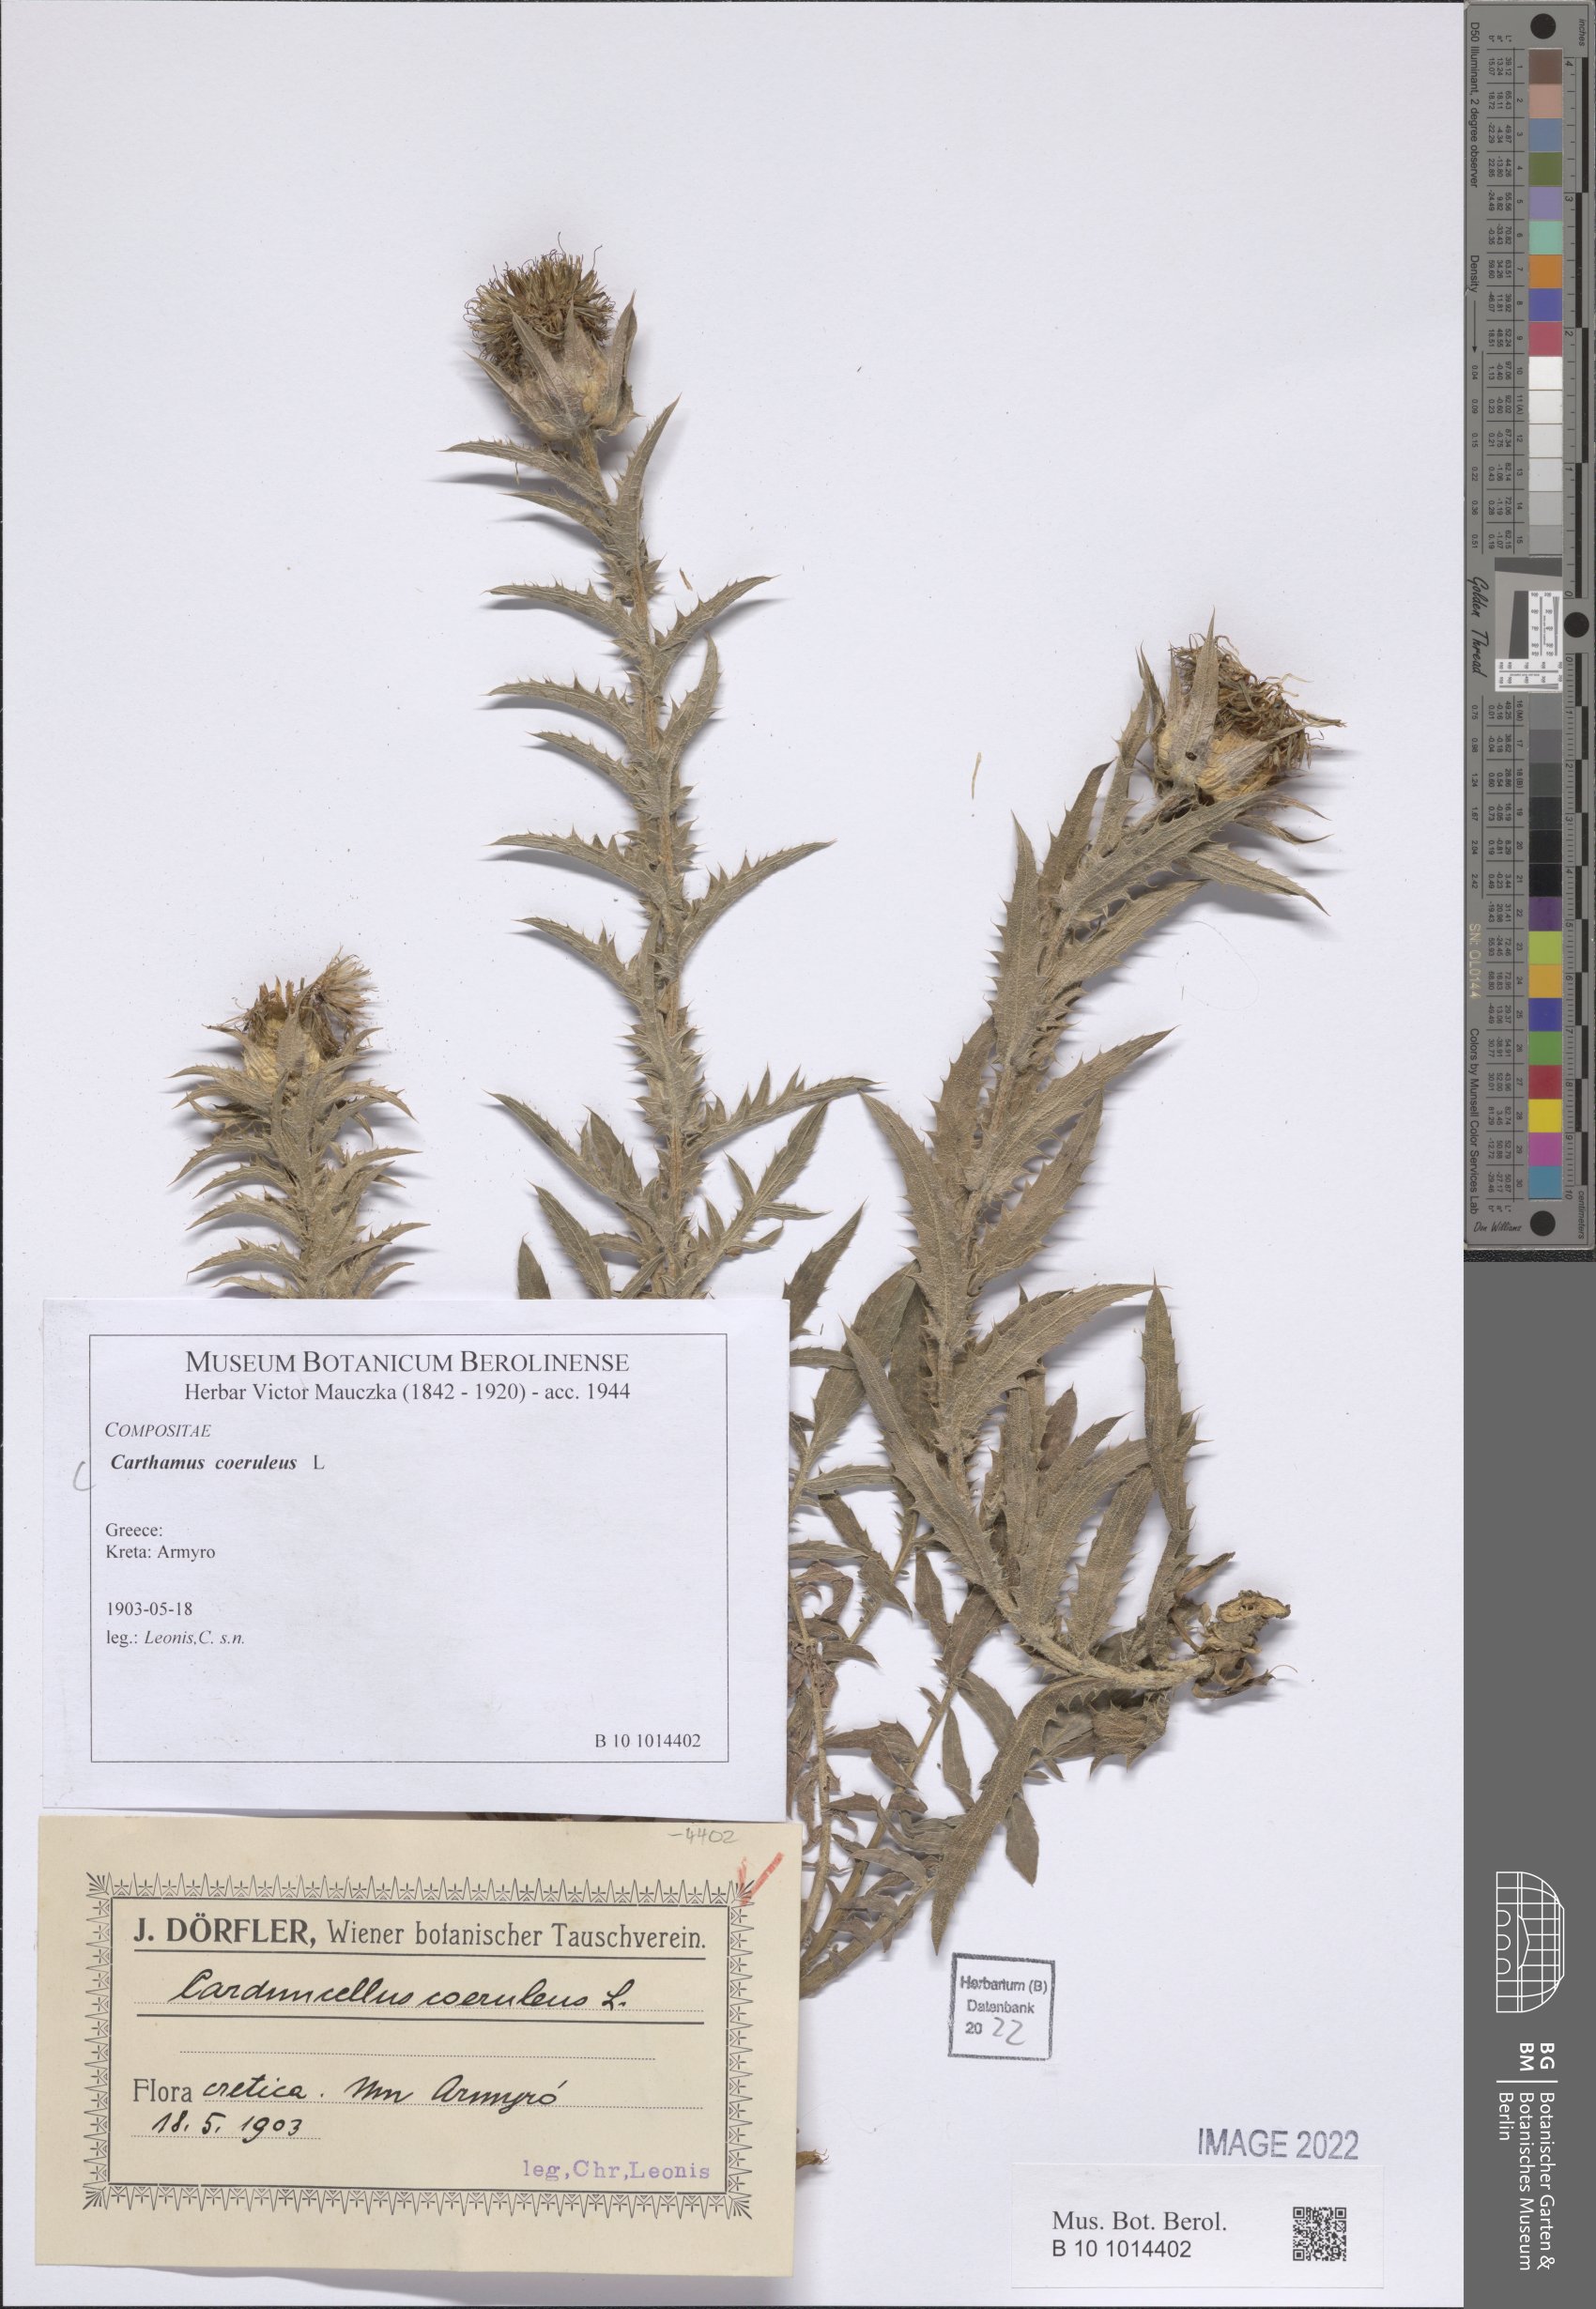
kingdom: Plantae
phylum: Tracheophyta
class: Magnoliopsida
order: Asterales
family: Asteraceae
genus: Carduncellus
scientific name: Carduncellus caeruleus
